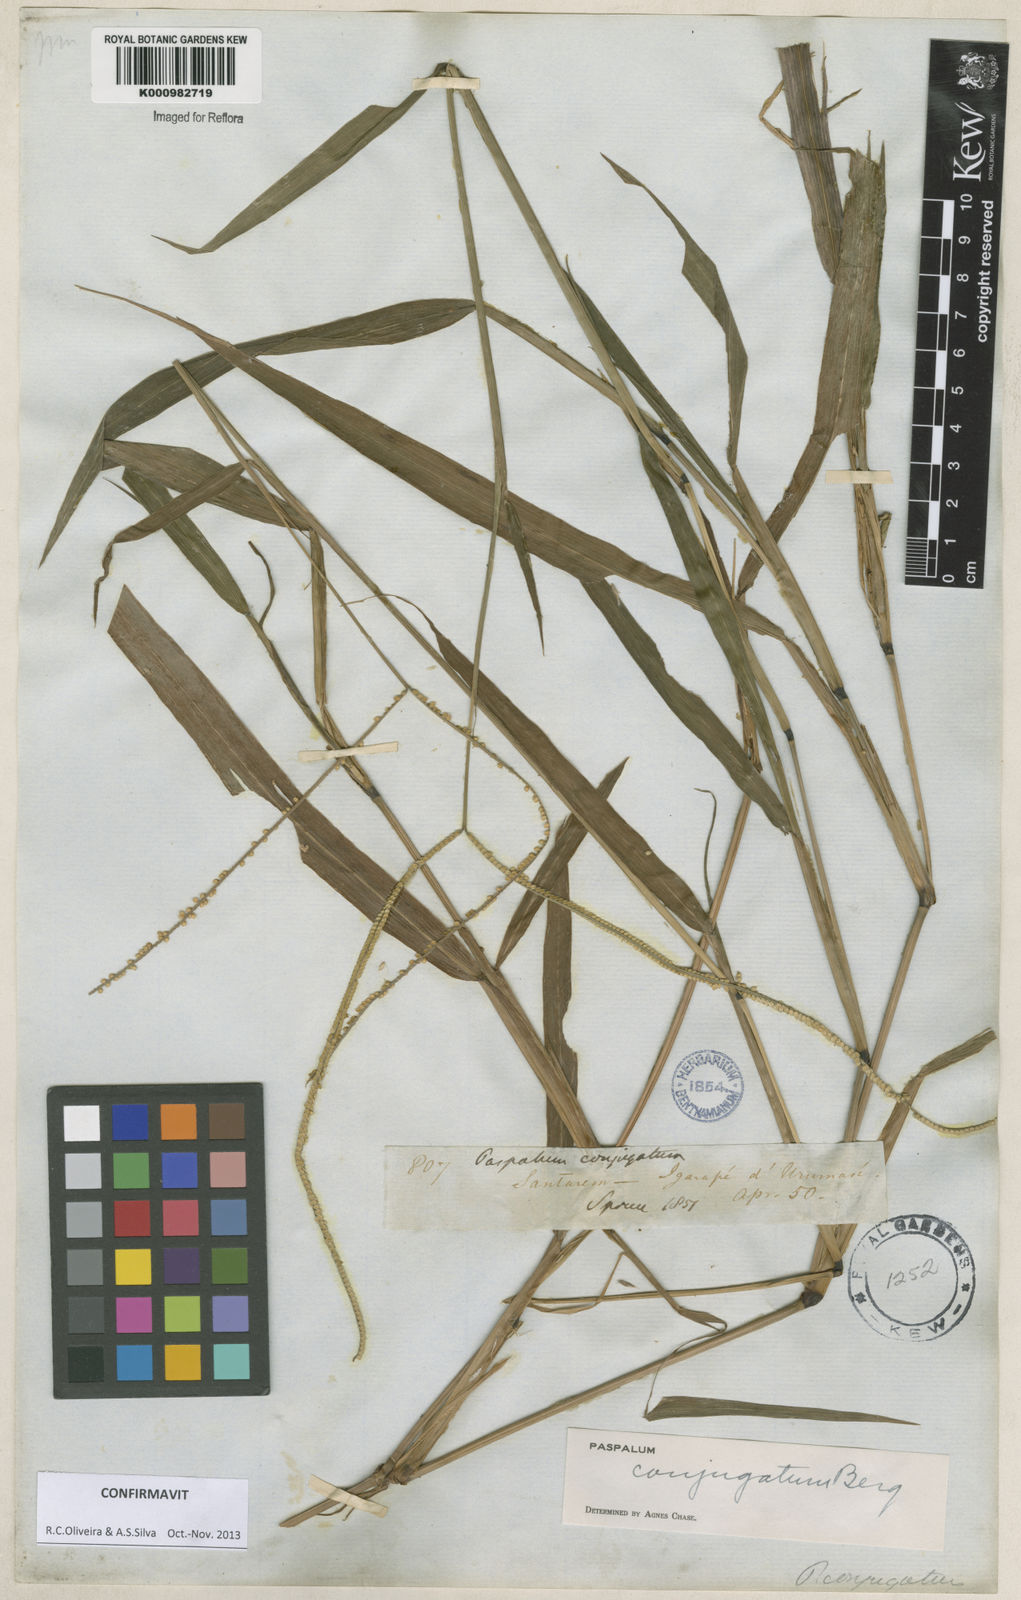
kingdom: Plantae
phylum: Tracheophyta
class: Liliopsida
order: Poales
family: Poaceae
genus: Paspalum
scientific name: Paspalum conjugatum
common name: Hilograss
